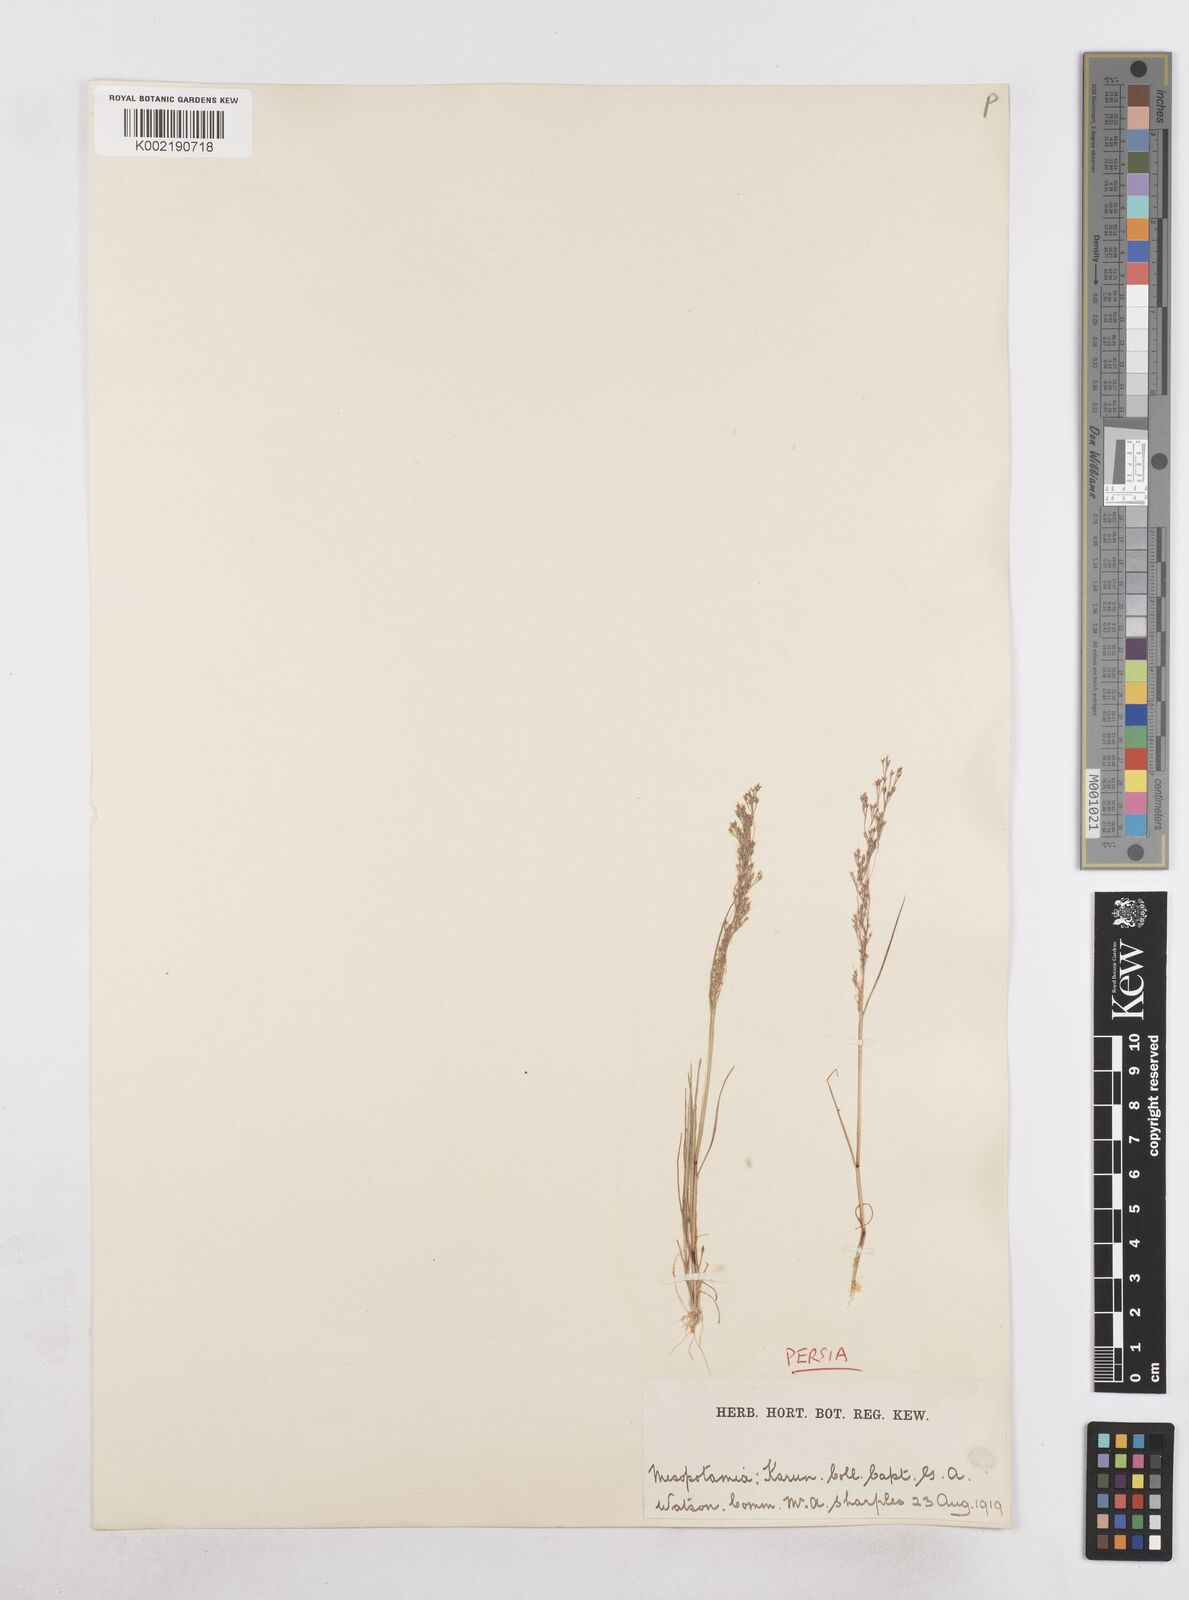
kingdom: Plantae
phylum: Tracheophyta
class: Liliopsida
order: Poales
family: Poaceae
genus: Sphenopus
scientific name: Sphenopus divaricatus
